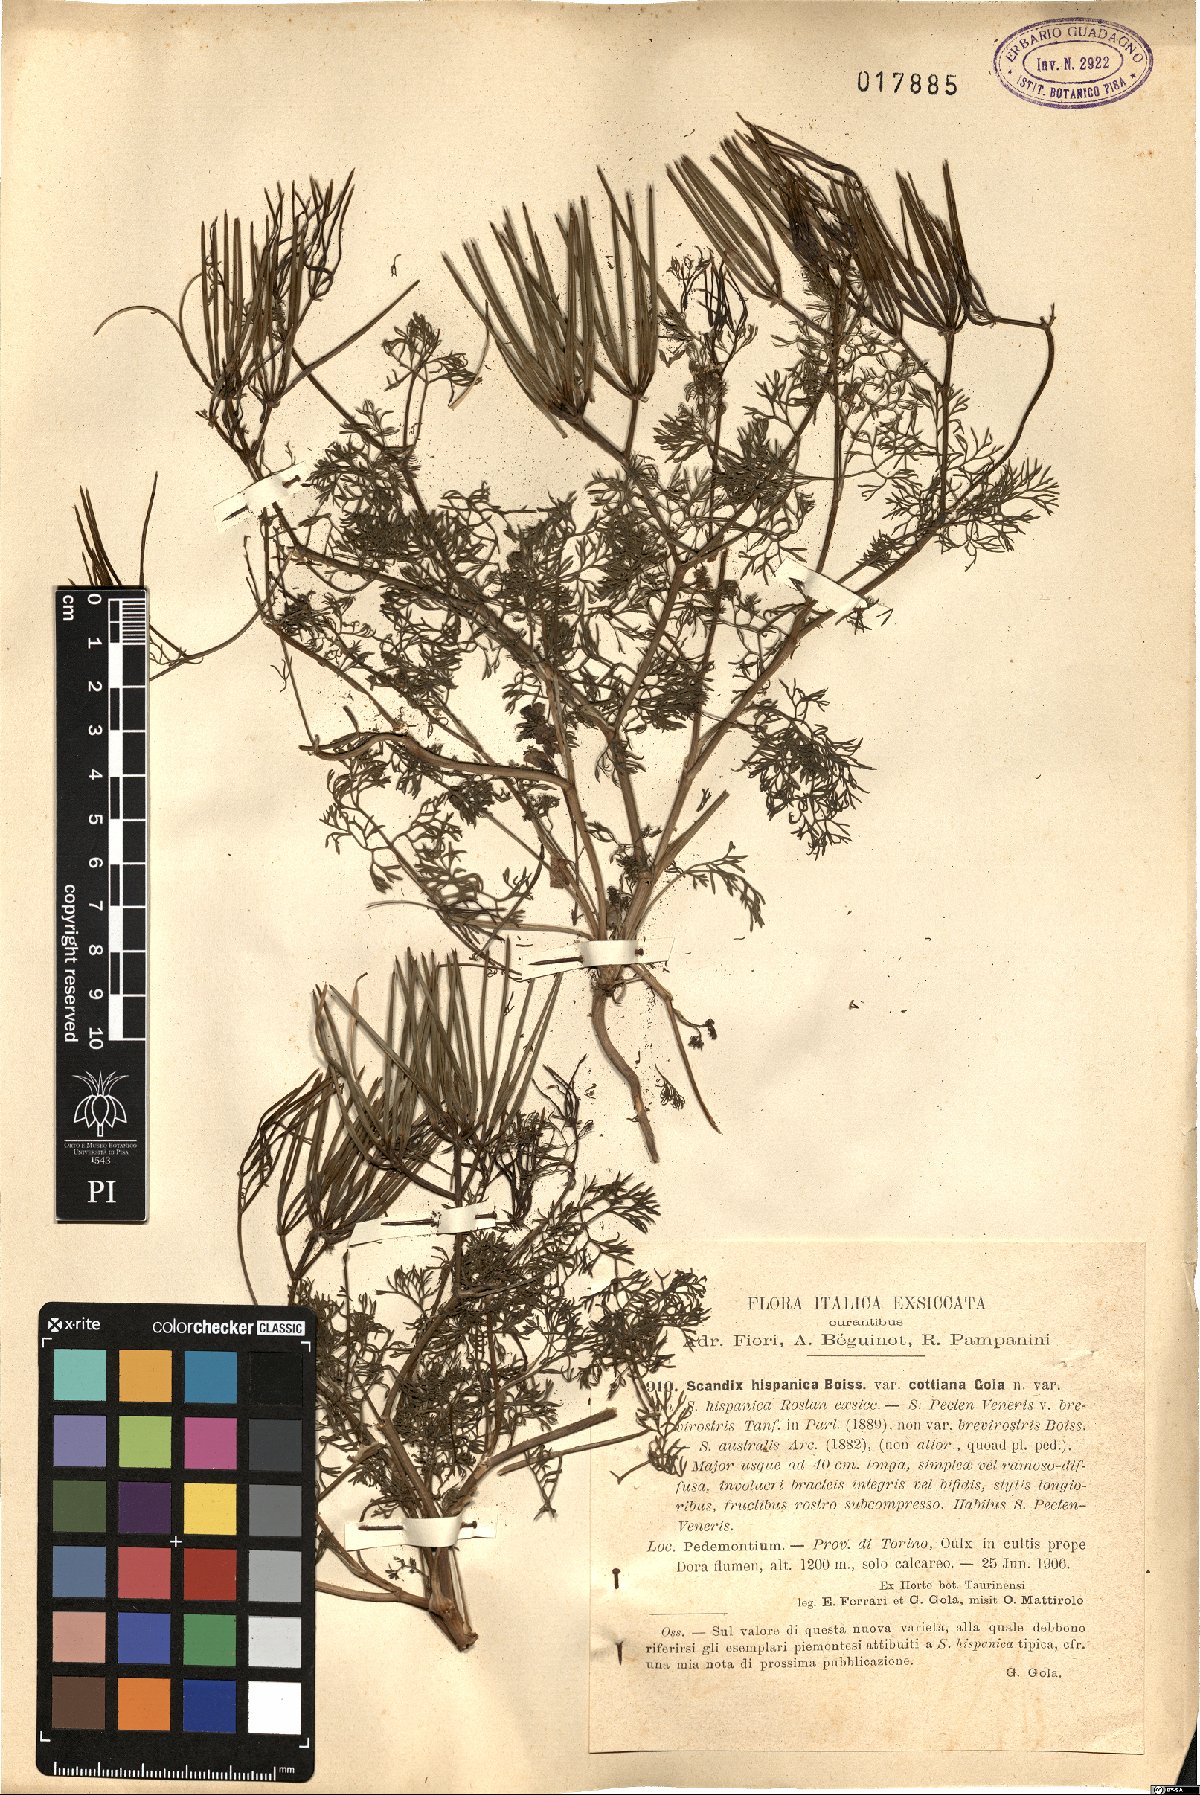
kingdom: Plantae
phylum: Tracheophyta
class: Magnoliopsida
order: Apiales
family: Apiaceae
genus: Scandix
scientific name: Scandix
